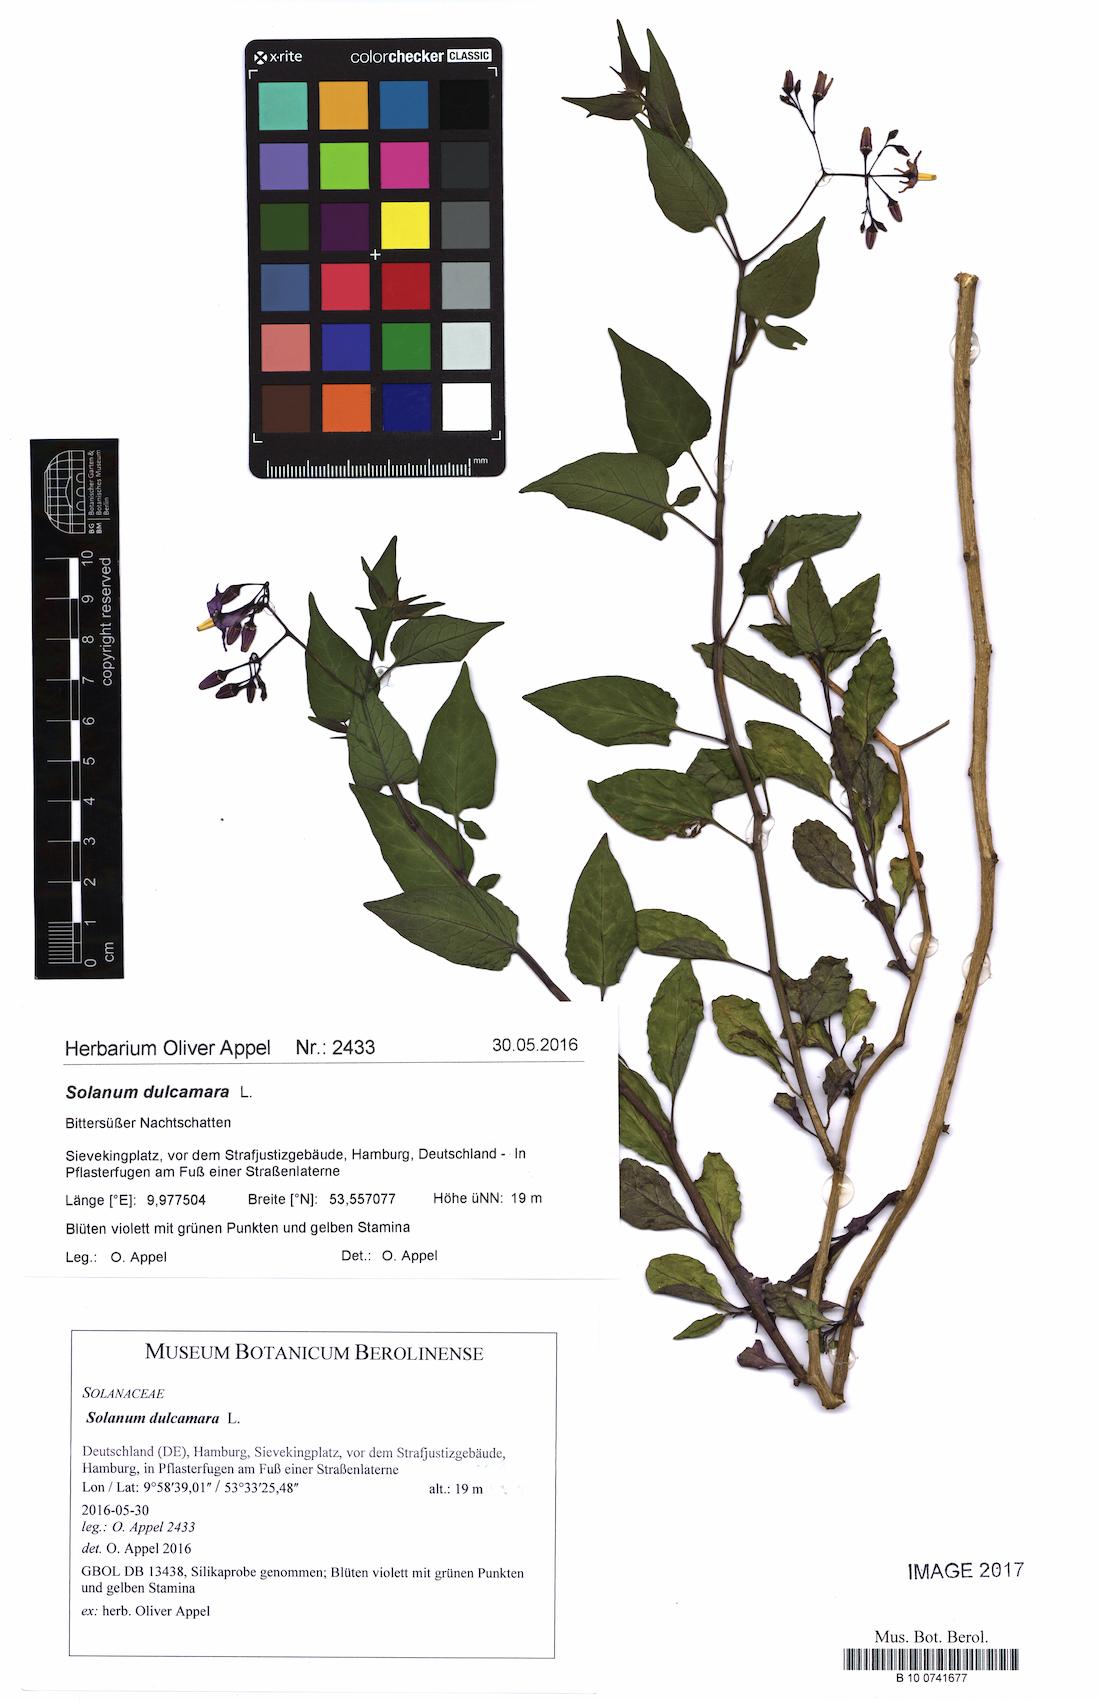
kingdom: Plantae
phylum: Tracheophyta
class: Magnoliopsida
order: Solanales
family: Solanaceae
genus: Solanum
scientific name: Solanum dulcamara
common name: Climbing nightshade
